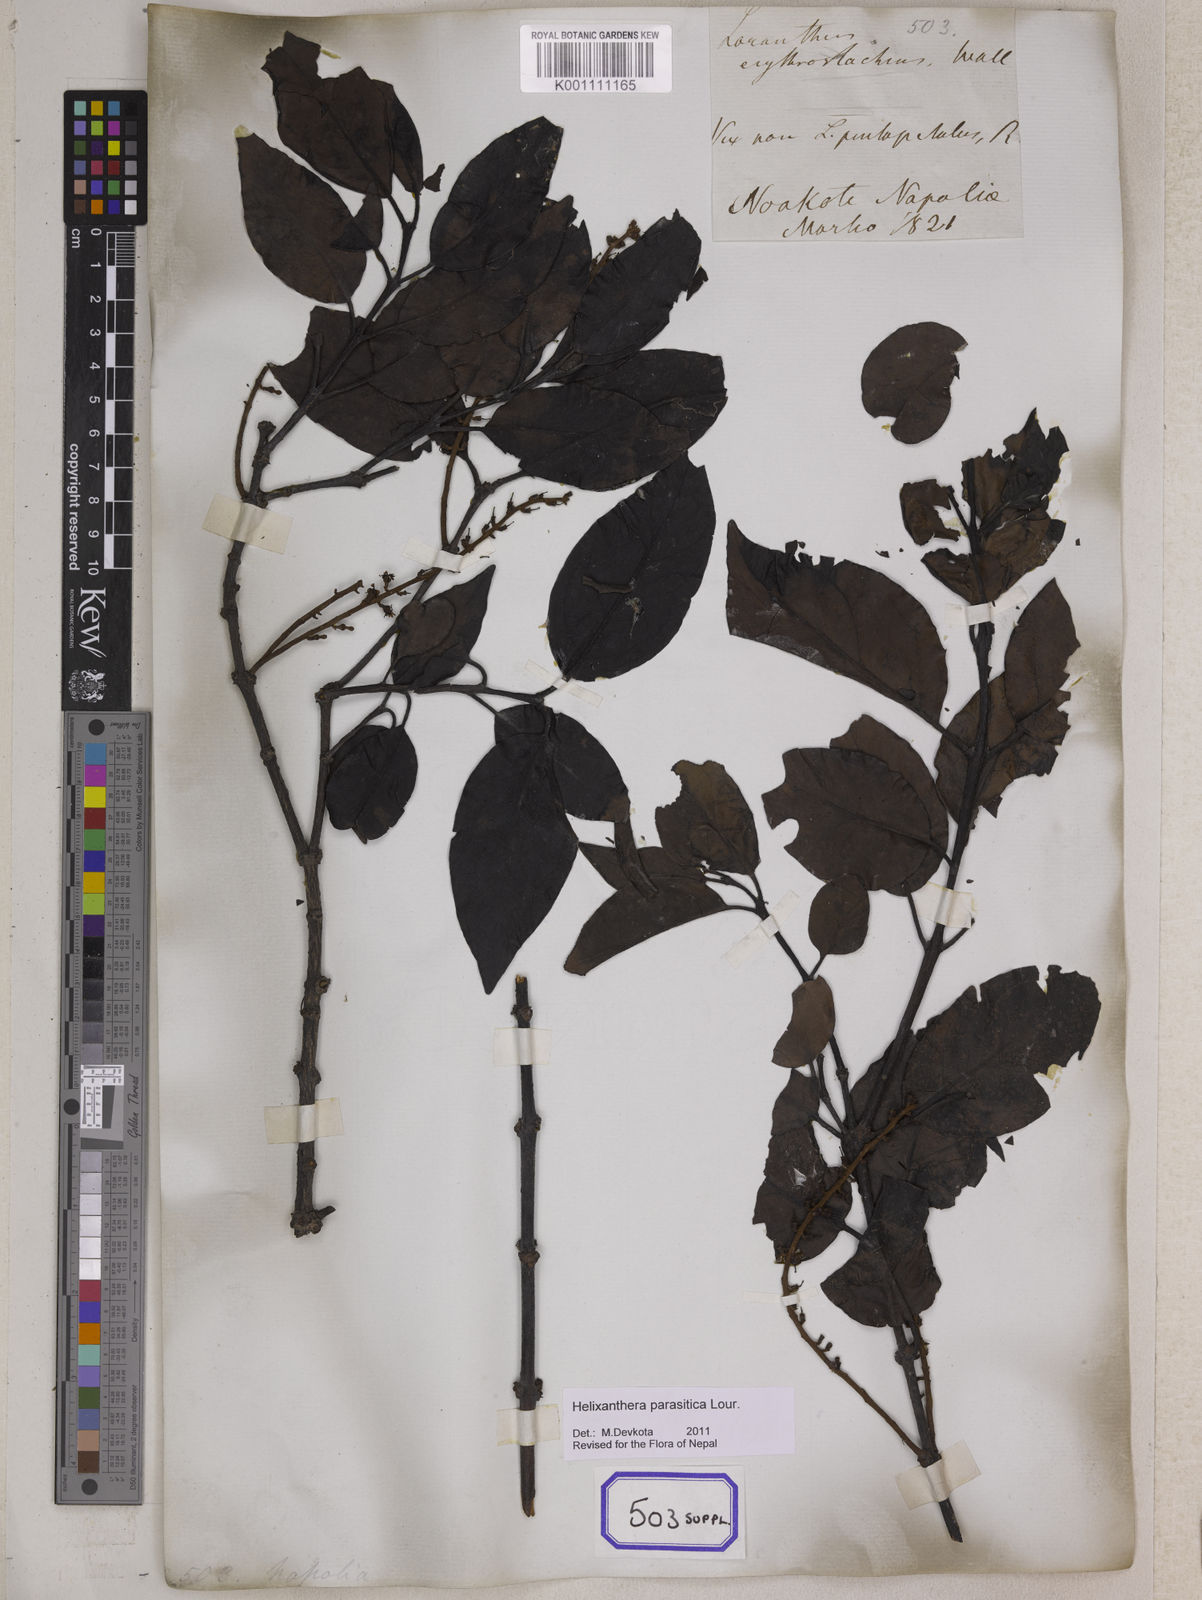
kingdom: Plantae
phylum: Tracheophyta
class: Magnoliopsida
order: Santalales
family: Loranthaceae
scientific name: Loranthaceae
